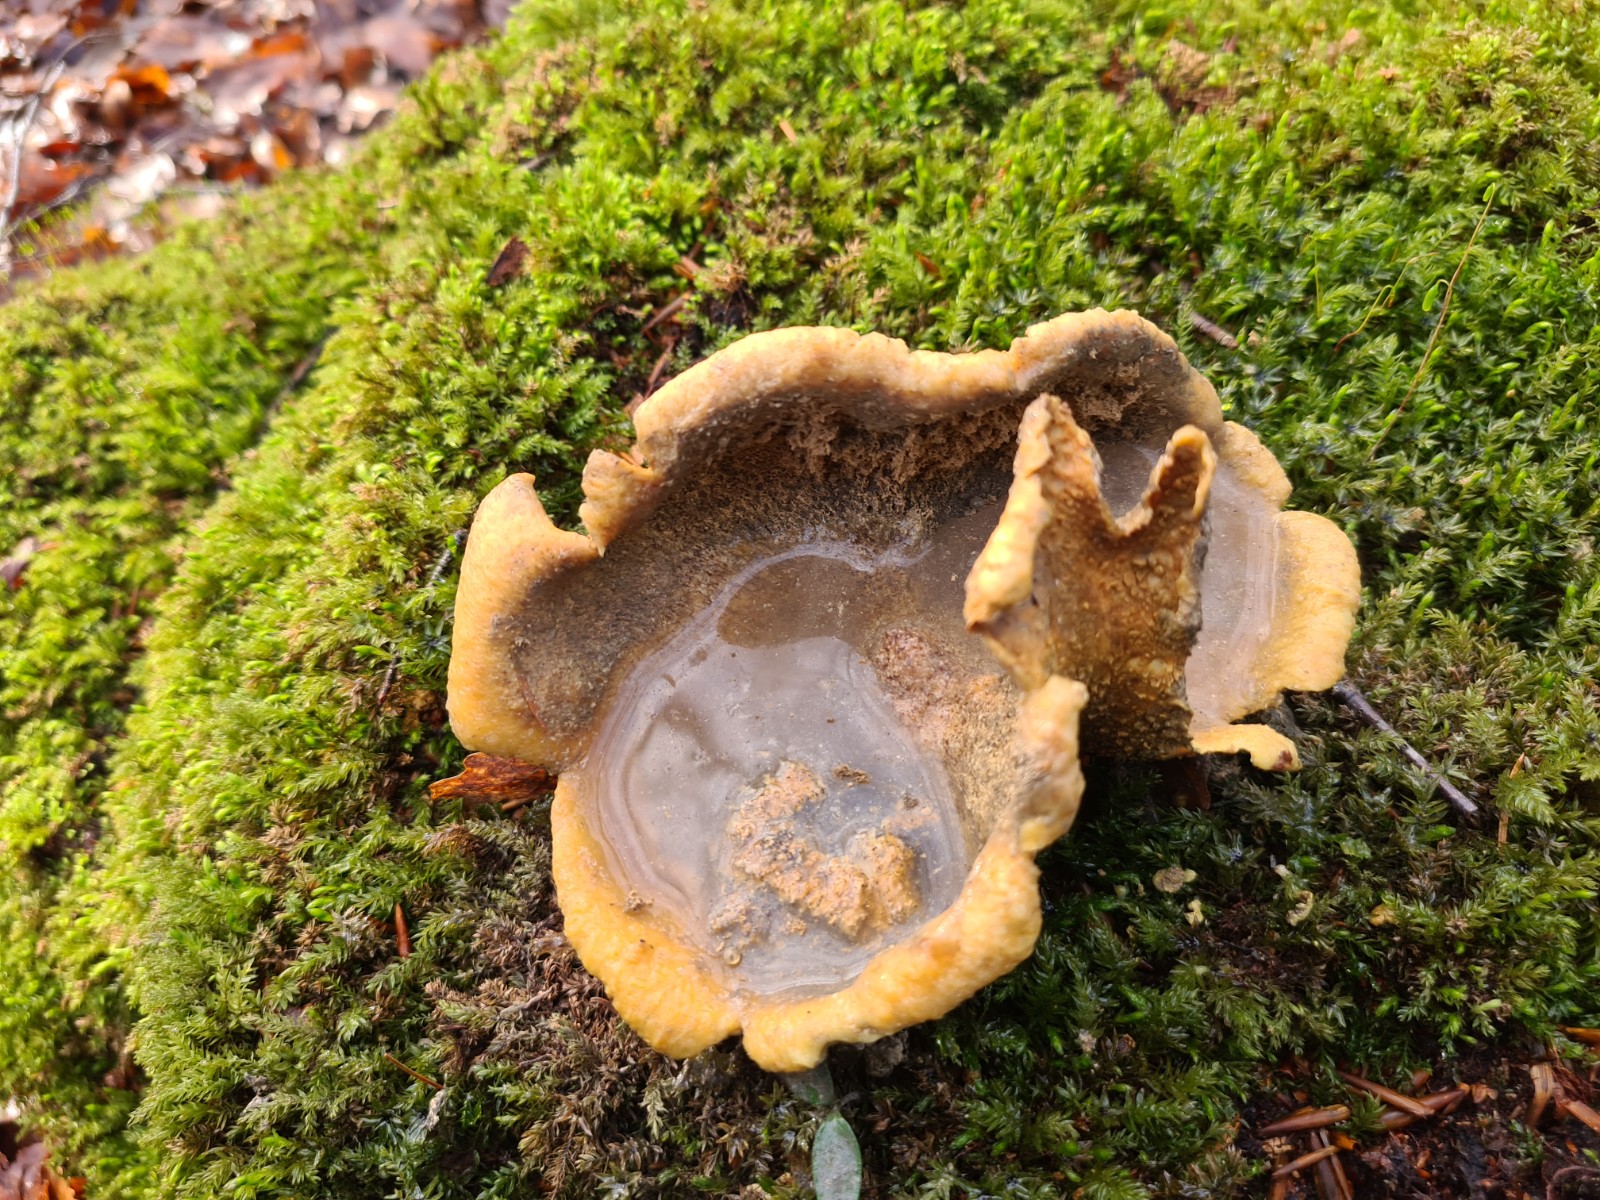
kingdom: Fungi
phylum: Basidiomycota
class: Agaricomycetes
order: Boletales
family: Sclerodermataceae
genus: Scleroderma
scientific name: Scleroderma citrinum
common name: almindelig bruskbold
